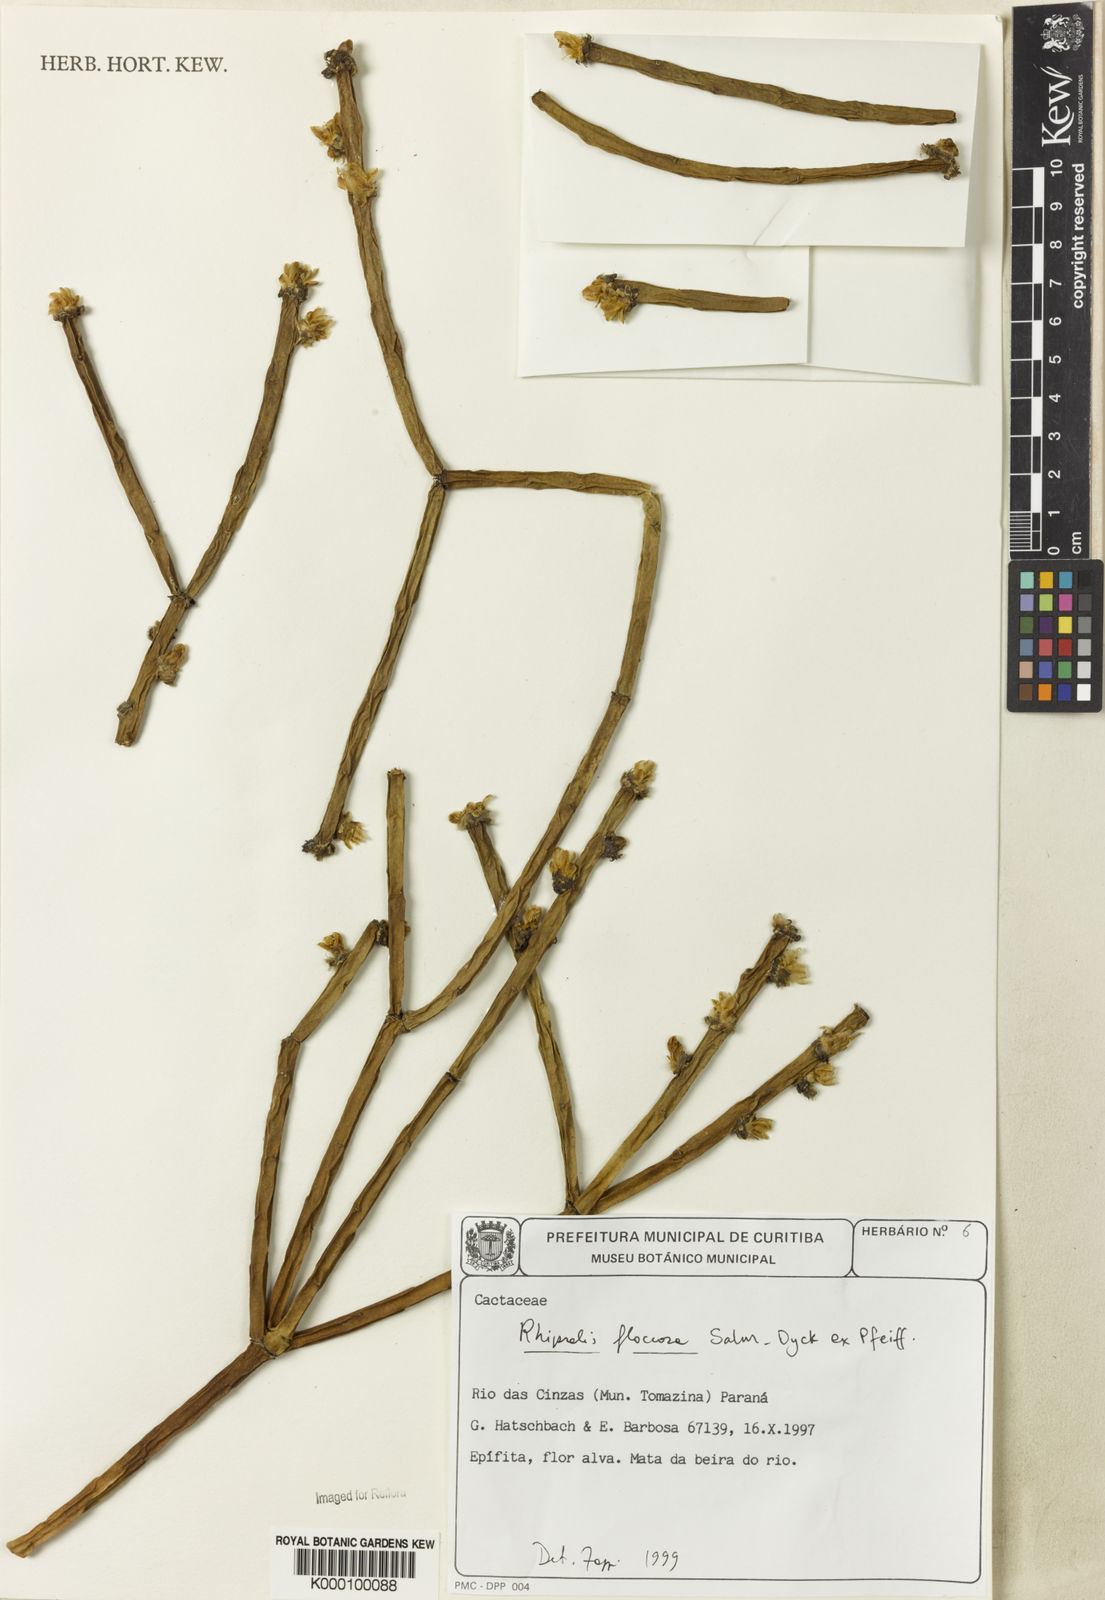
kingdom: Plantae
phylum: Tracheophyta
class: Magnoliopsida
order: Caryophyllales
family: Cactaceae
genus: Rhipsalis
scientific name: Rhipsalis floccosa
